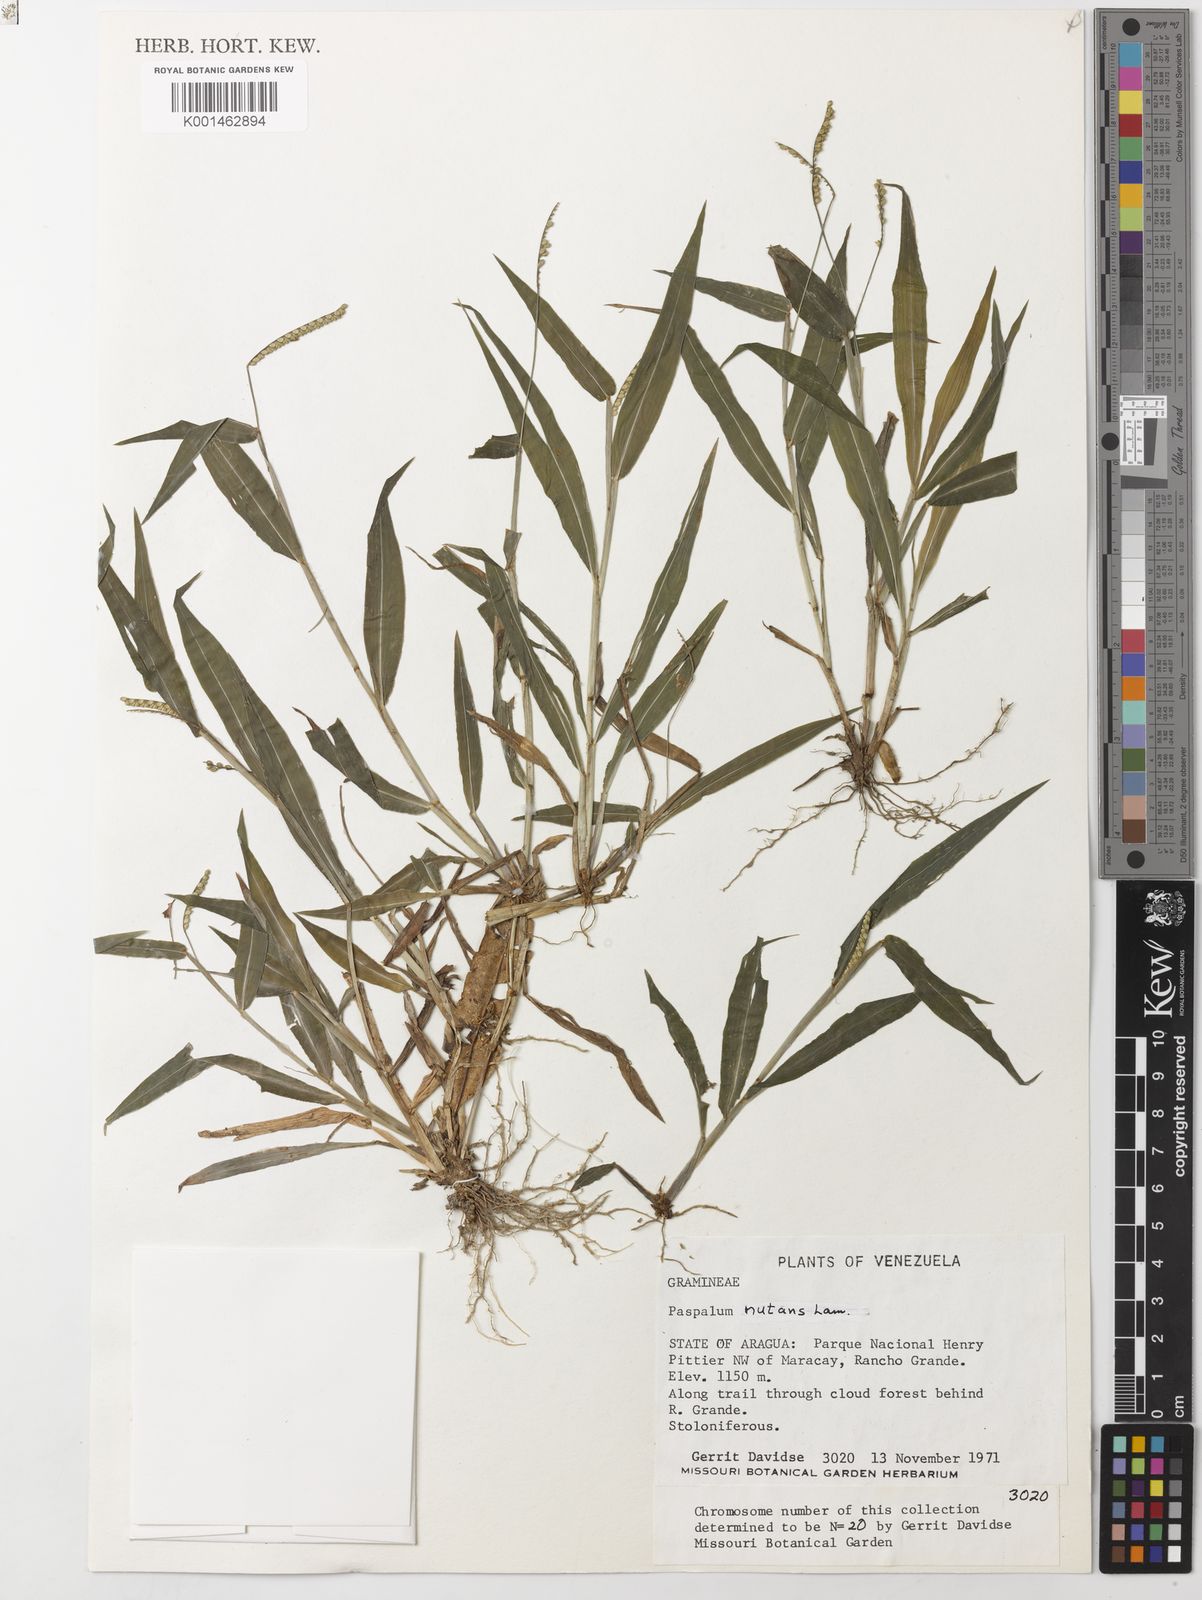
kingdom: Plantae
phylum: Tracheophyta
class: Liliopsida
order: Poales
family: Poaceae
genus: Paspalum
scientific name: Paspalum nutans
